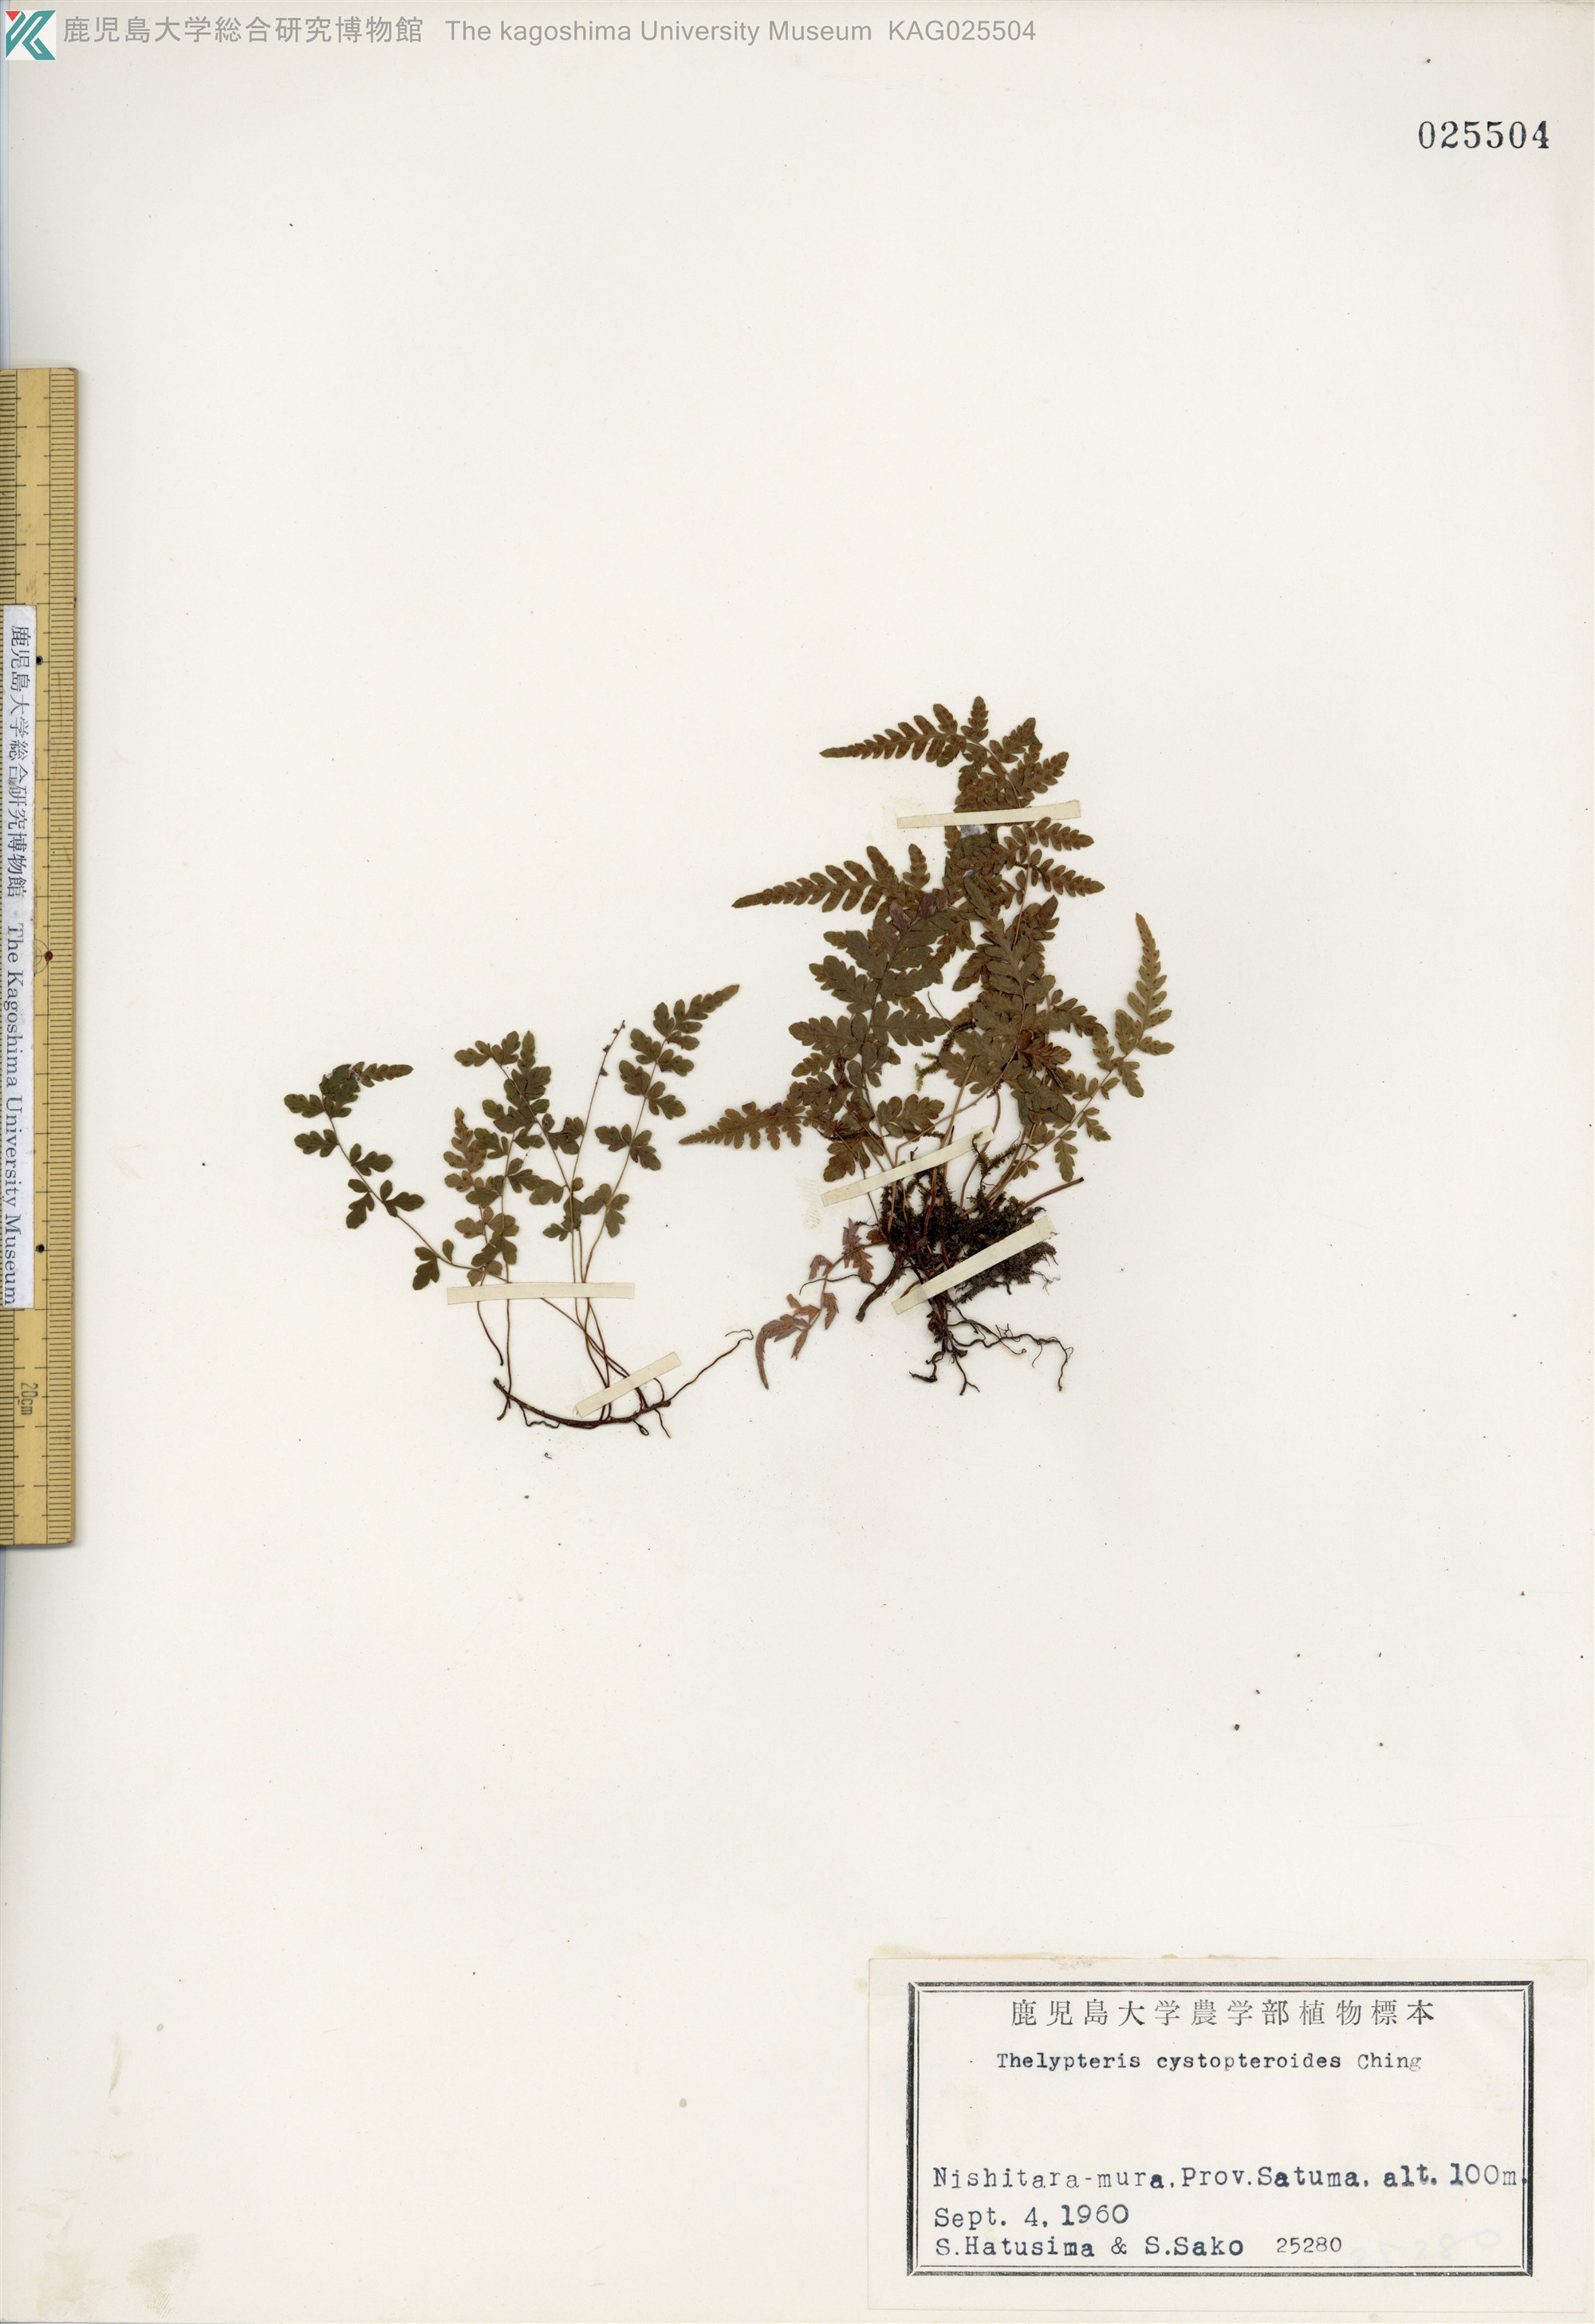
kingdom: Plantae
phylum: Tracheophyta
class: Polypodiopsida
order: Polypodiales
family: Thelypteridaceae
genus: Amauropelta
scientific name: Amauropelta cystopteroides
